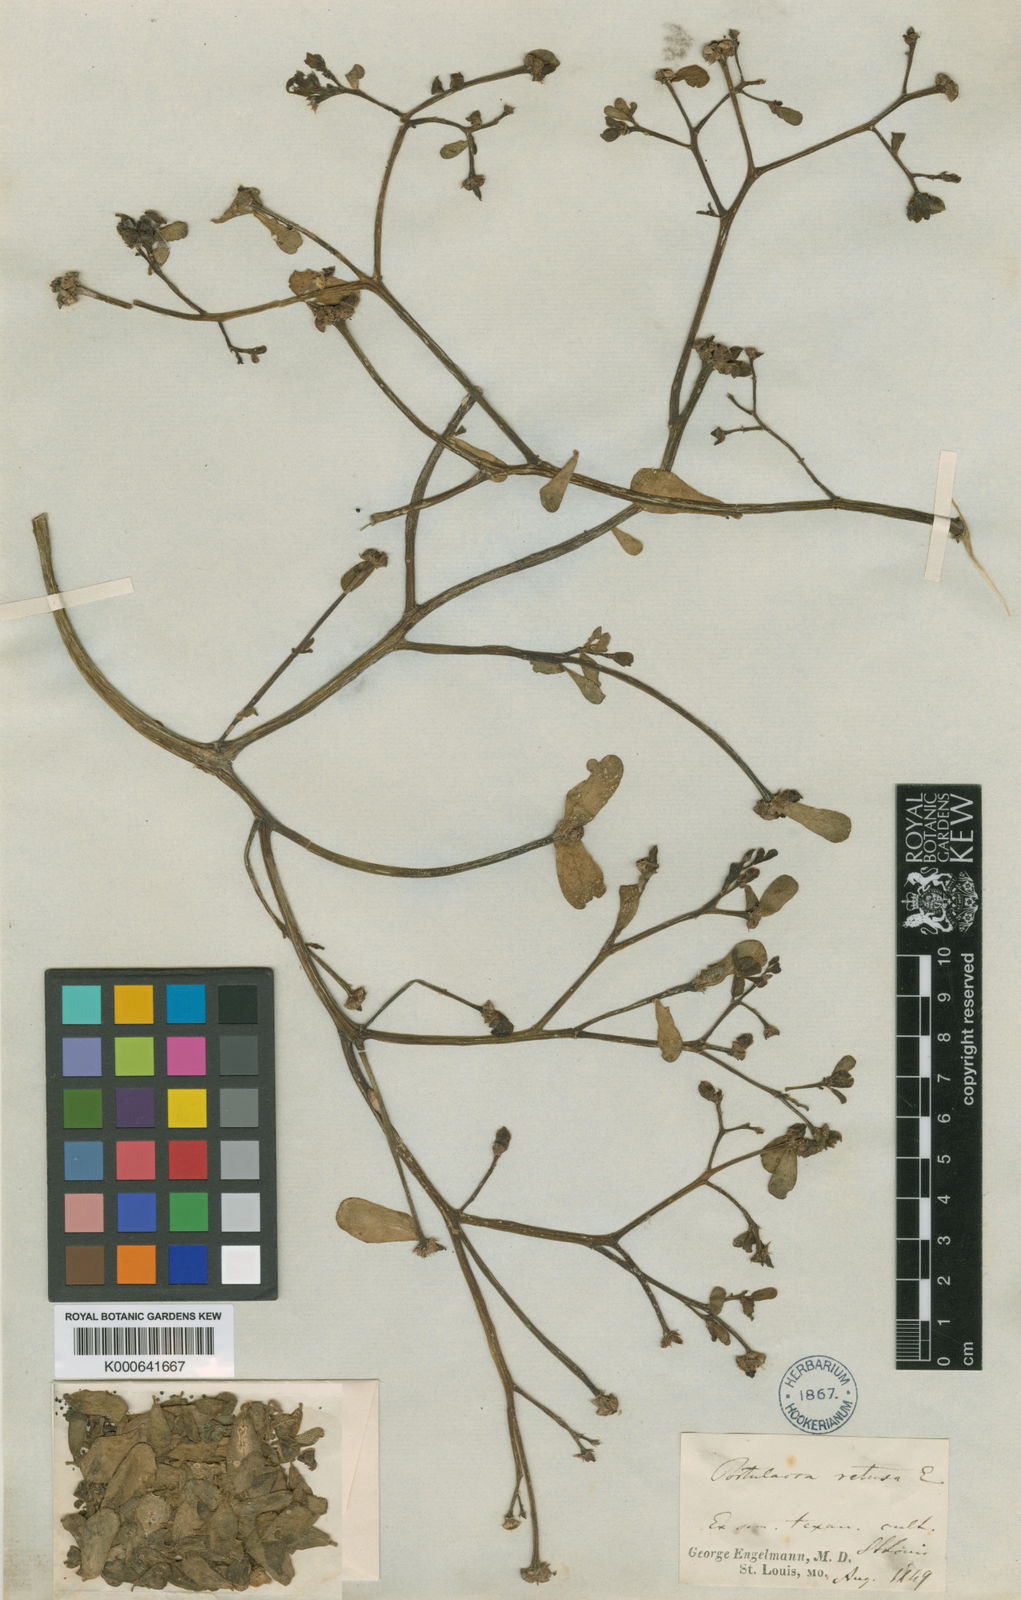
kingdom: Plantae
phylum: Tracheophyta
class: Magnoliopsida
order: Caryophyllales
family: Portulacaceae
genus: Portulaca
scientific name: Portulaca oleracea
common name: Common purslane
